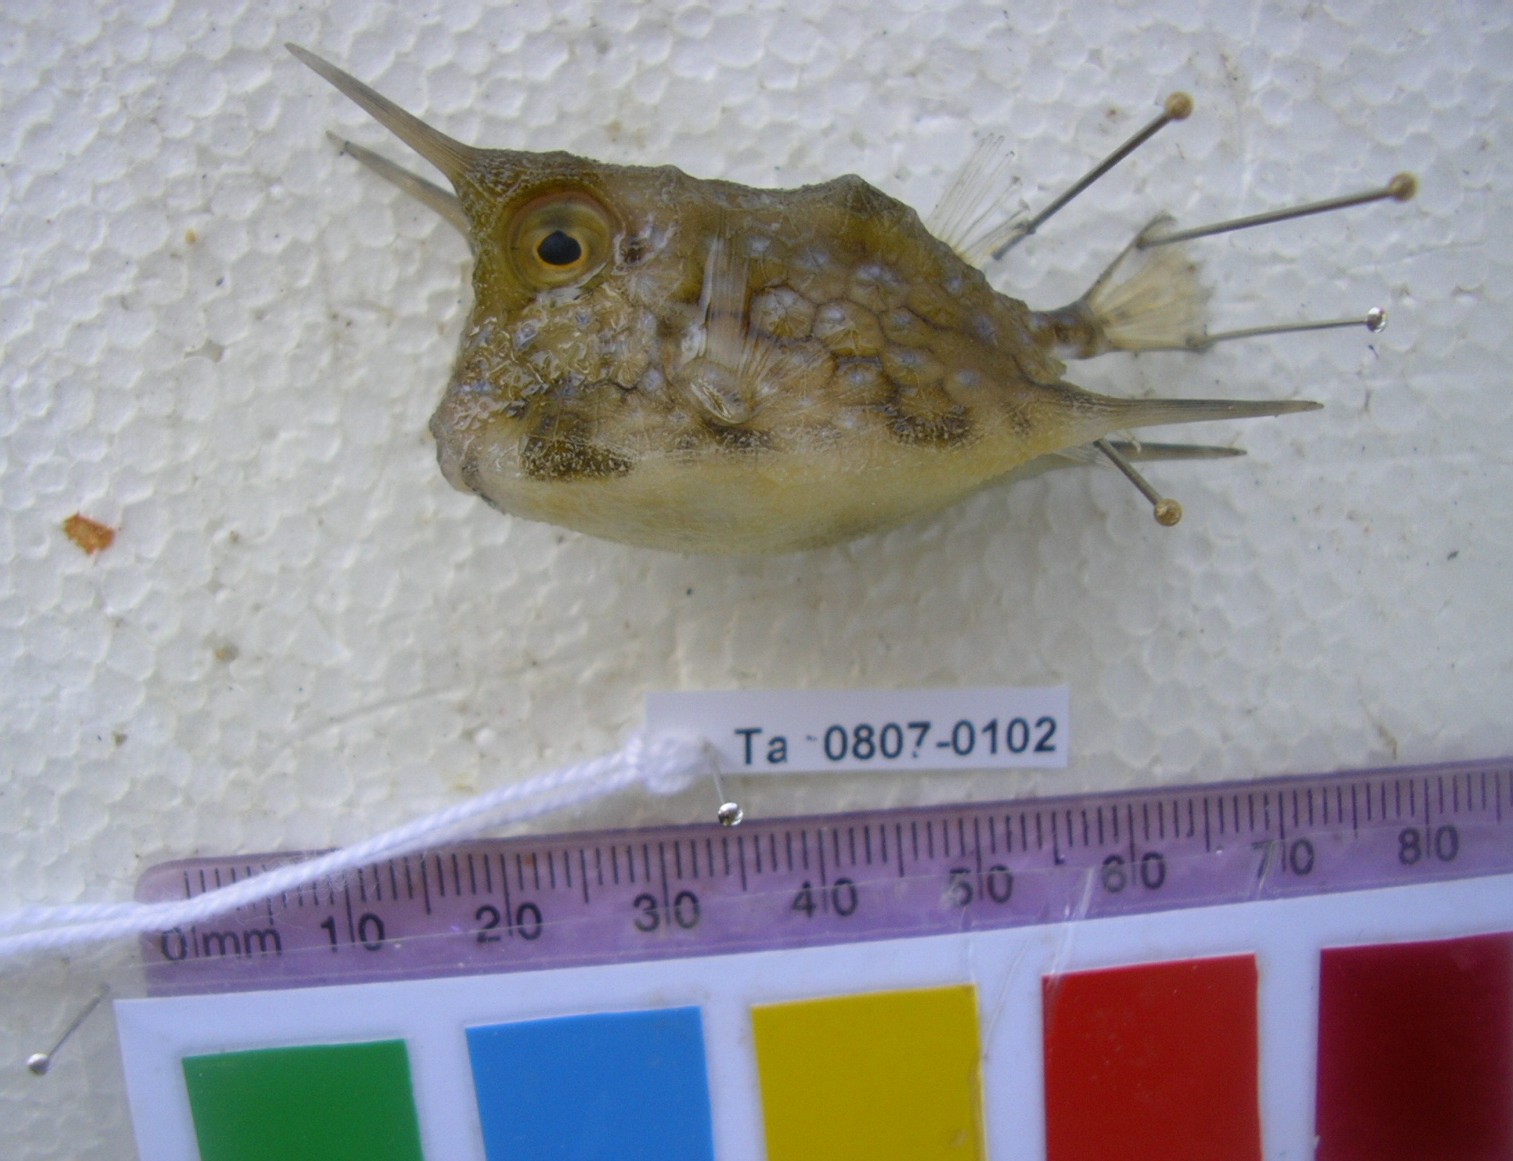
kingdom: Animalia
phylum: Chordata
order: Tetraodontiformes
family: Ostraciidae
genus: Lactoria
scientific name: Lactoria cornuta
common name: Longhorn cowfish
